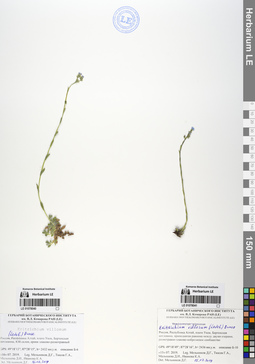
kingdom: Plantae
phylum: Tracheophyta
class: Magnoliopsida
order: Boraginales
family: Boraginaceae
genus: Eritrichium
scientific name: Eritrichium villosum
